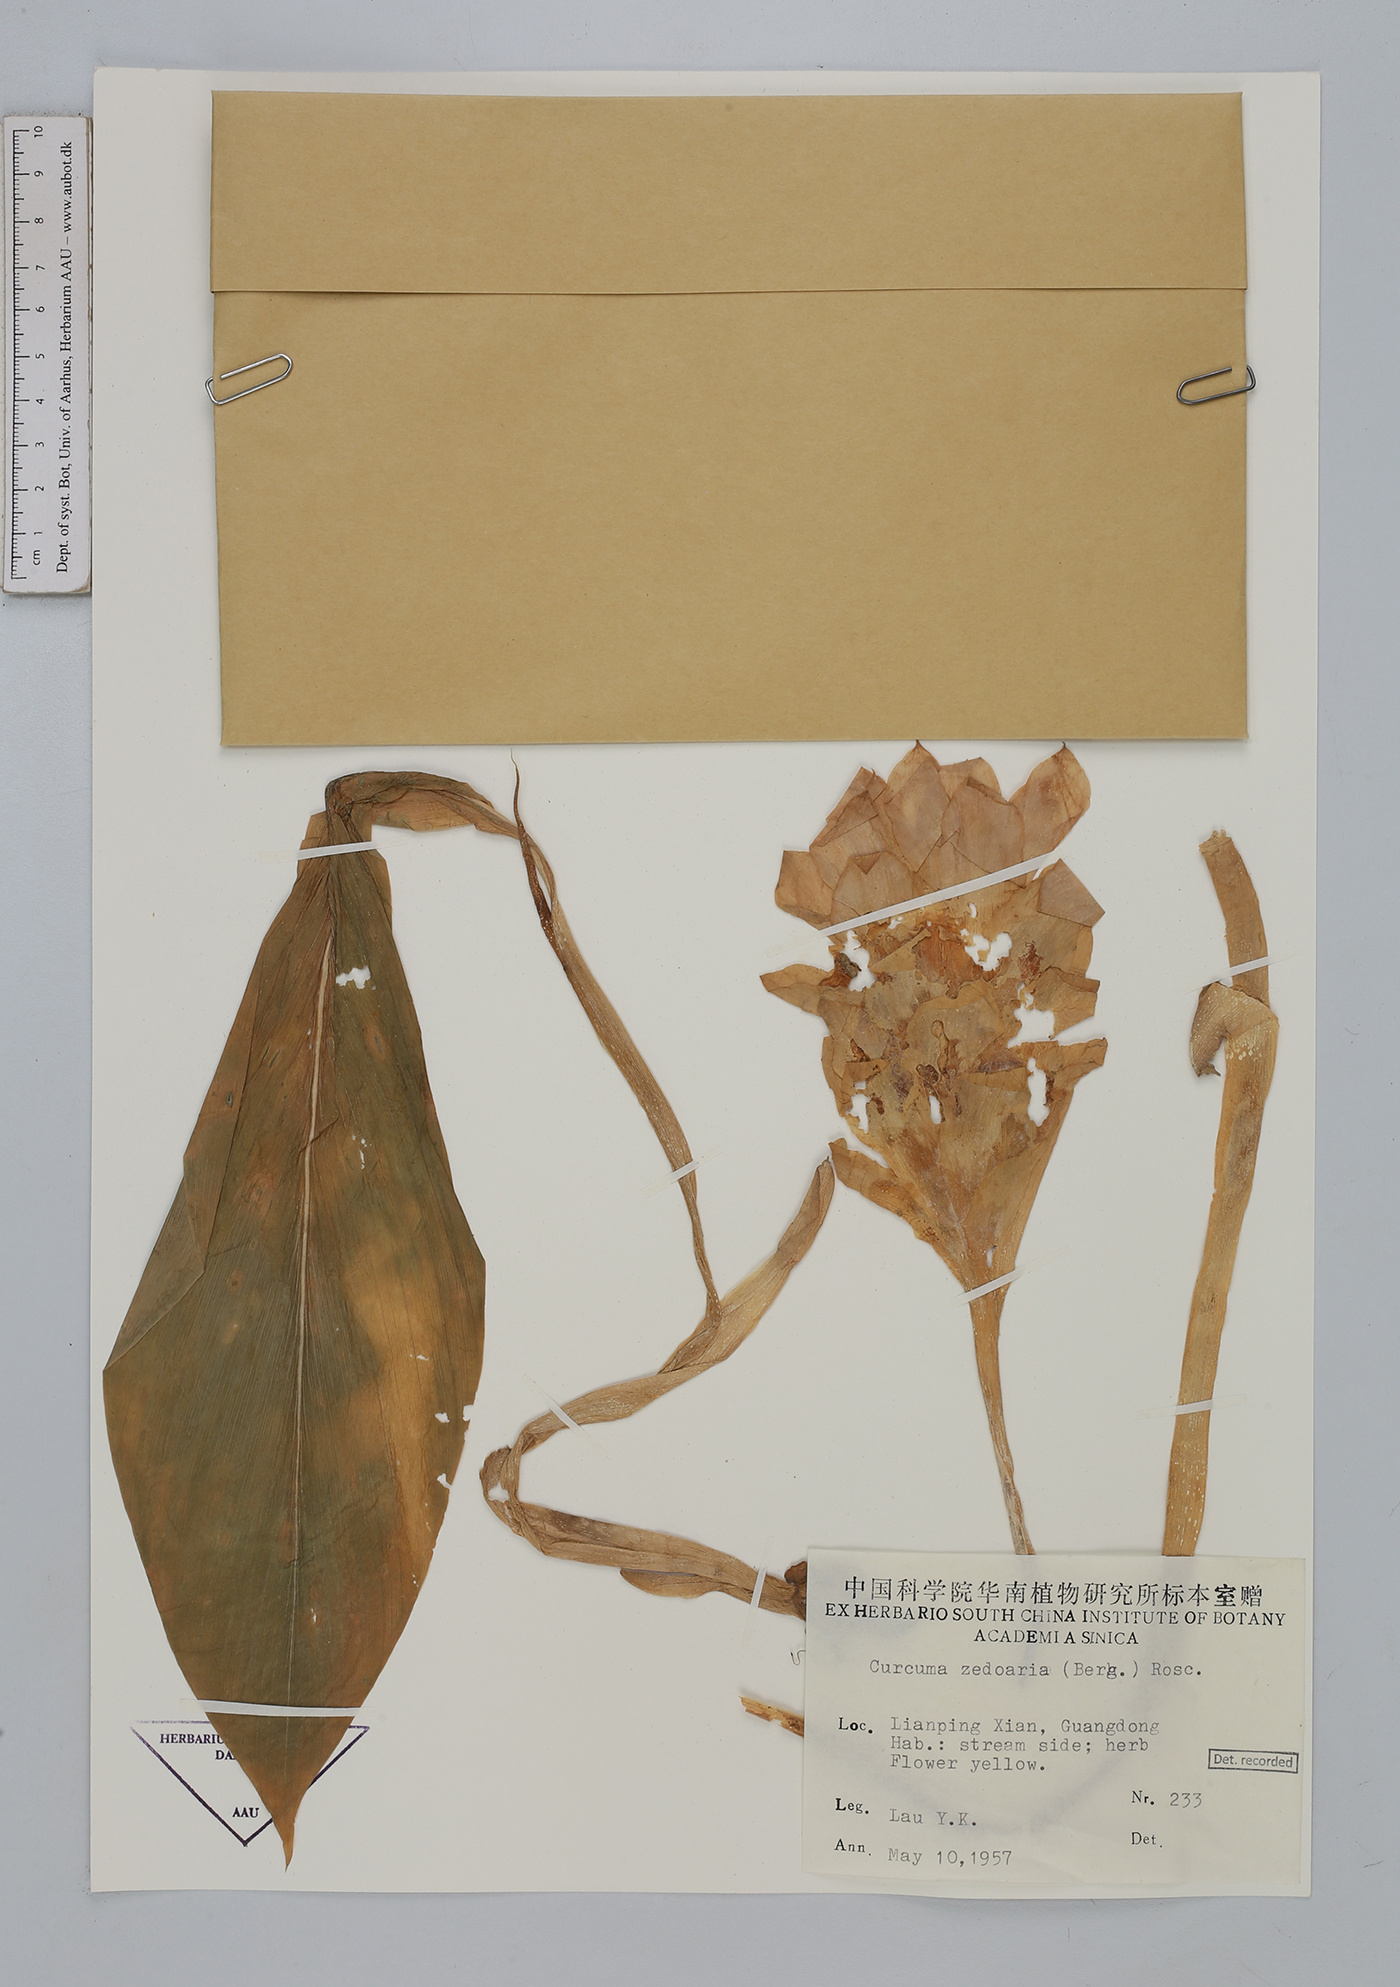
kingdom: Plantae
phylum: Tracheophyta
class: Liliopsida
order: Zingiberales
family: Zingiberaceae
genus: Curcuma
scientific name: Curcuma zedoaria
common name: Zedoary
